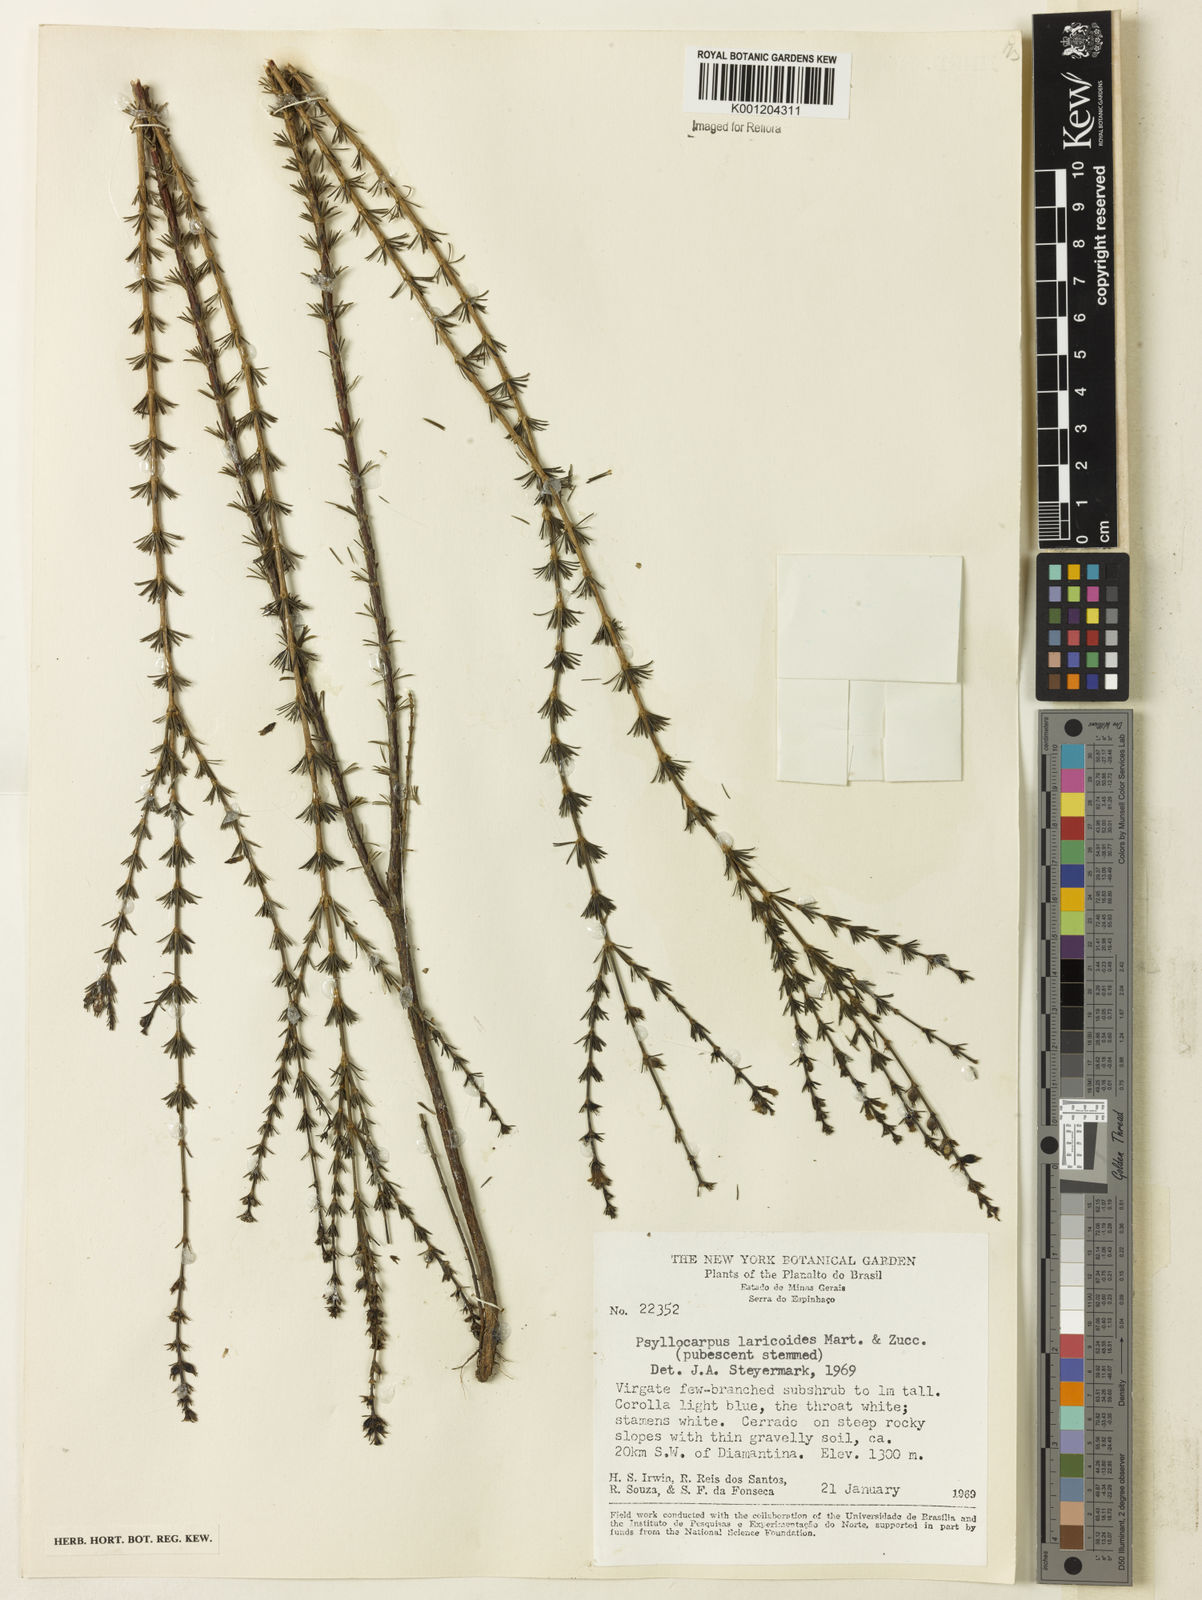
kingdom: Plantae
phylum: Tracheophyta
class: Magnoliopsida
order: Gentianales
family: Rubiaceae
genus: Psyllocarpus
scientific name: Psyllocarpus laricoides
